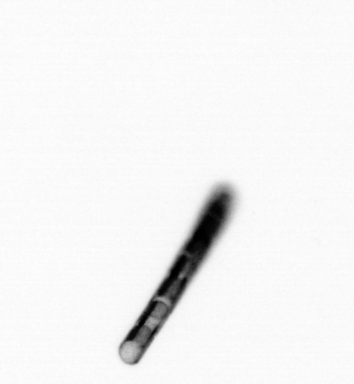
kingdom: Chromista
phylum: Ochrophyta
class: Bacillariophyceae
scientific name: Bacillariophyceae
